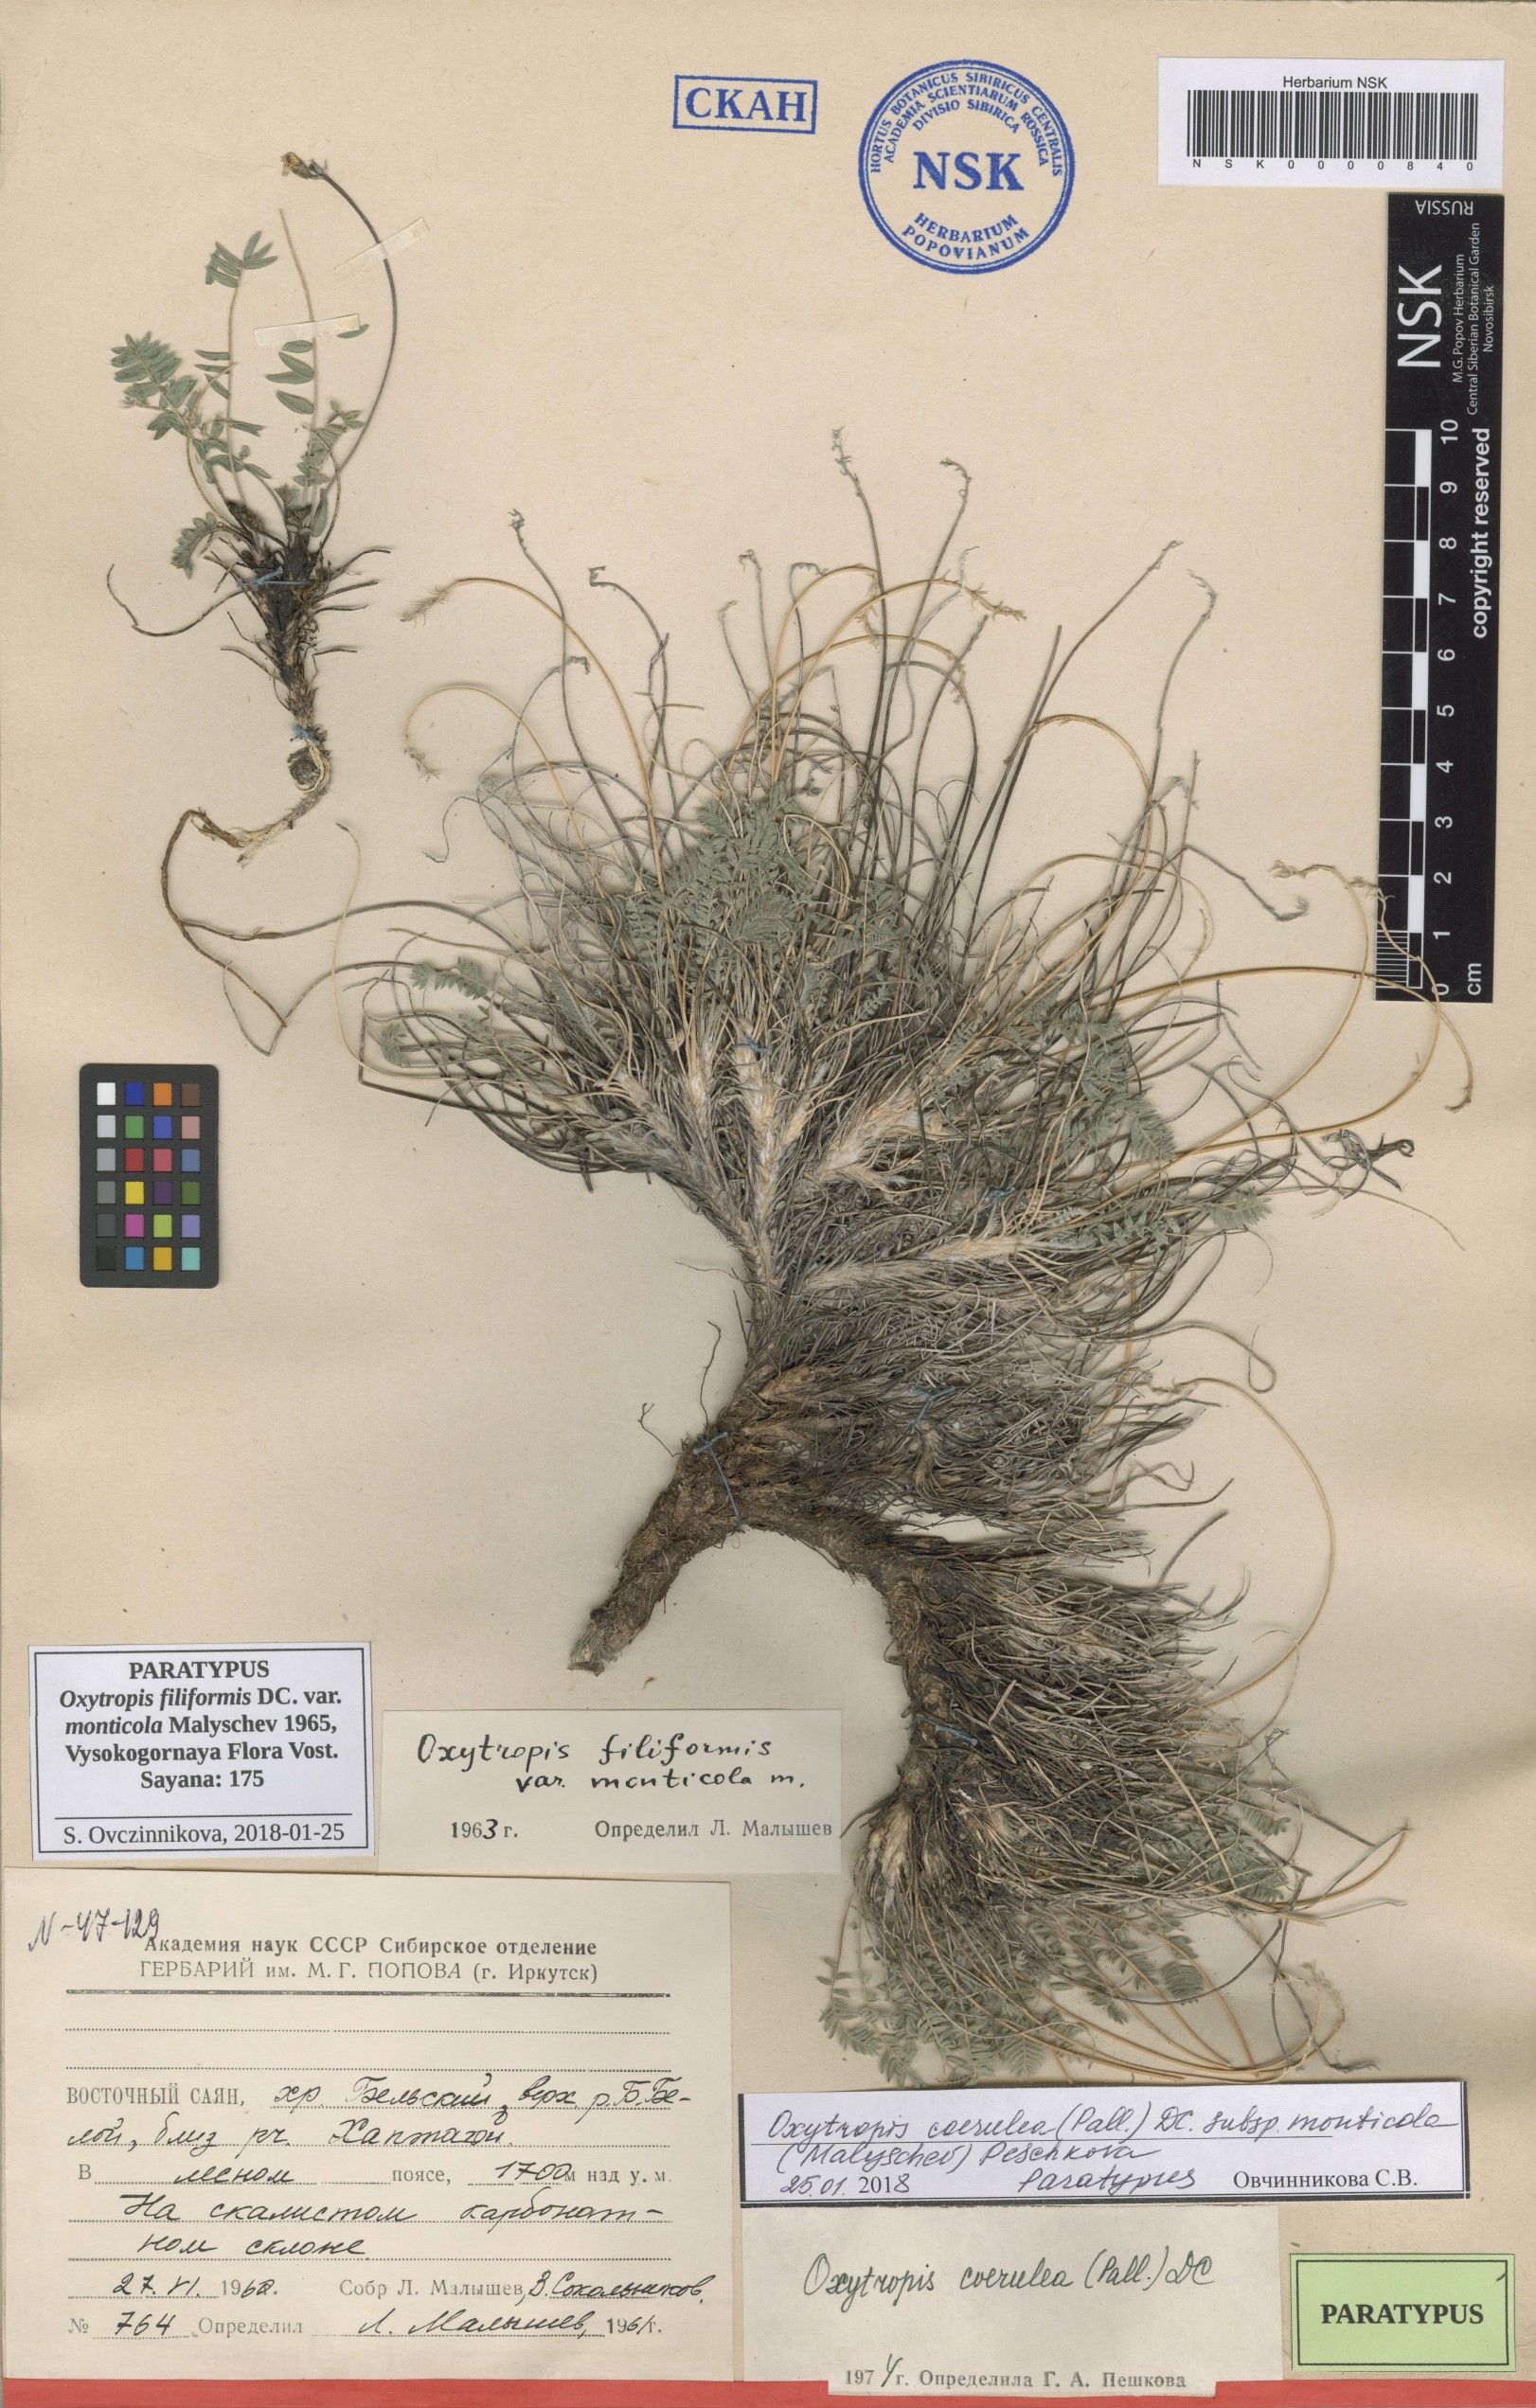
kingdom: Plantae
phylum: Tracheophyta
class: Magnoliopsida
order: Fabales
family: Fabaceae
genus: Oxytropis
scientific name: Oxytropis coerulea
